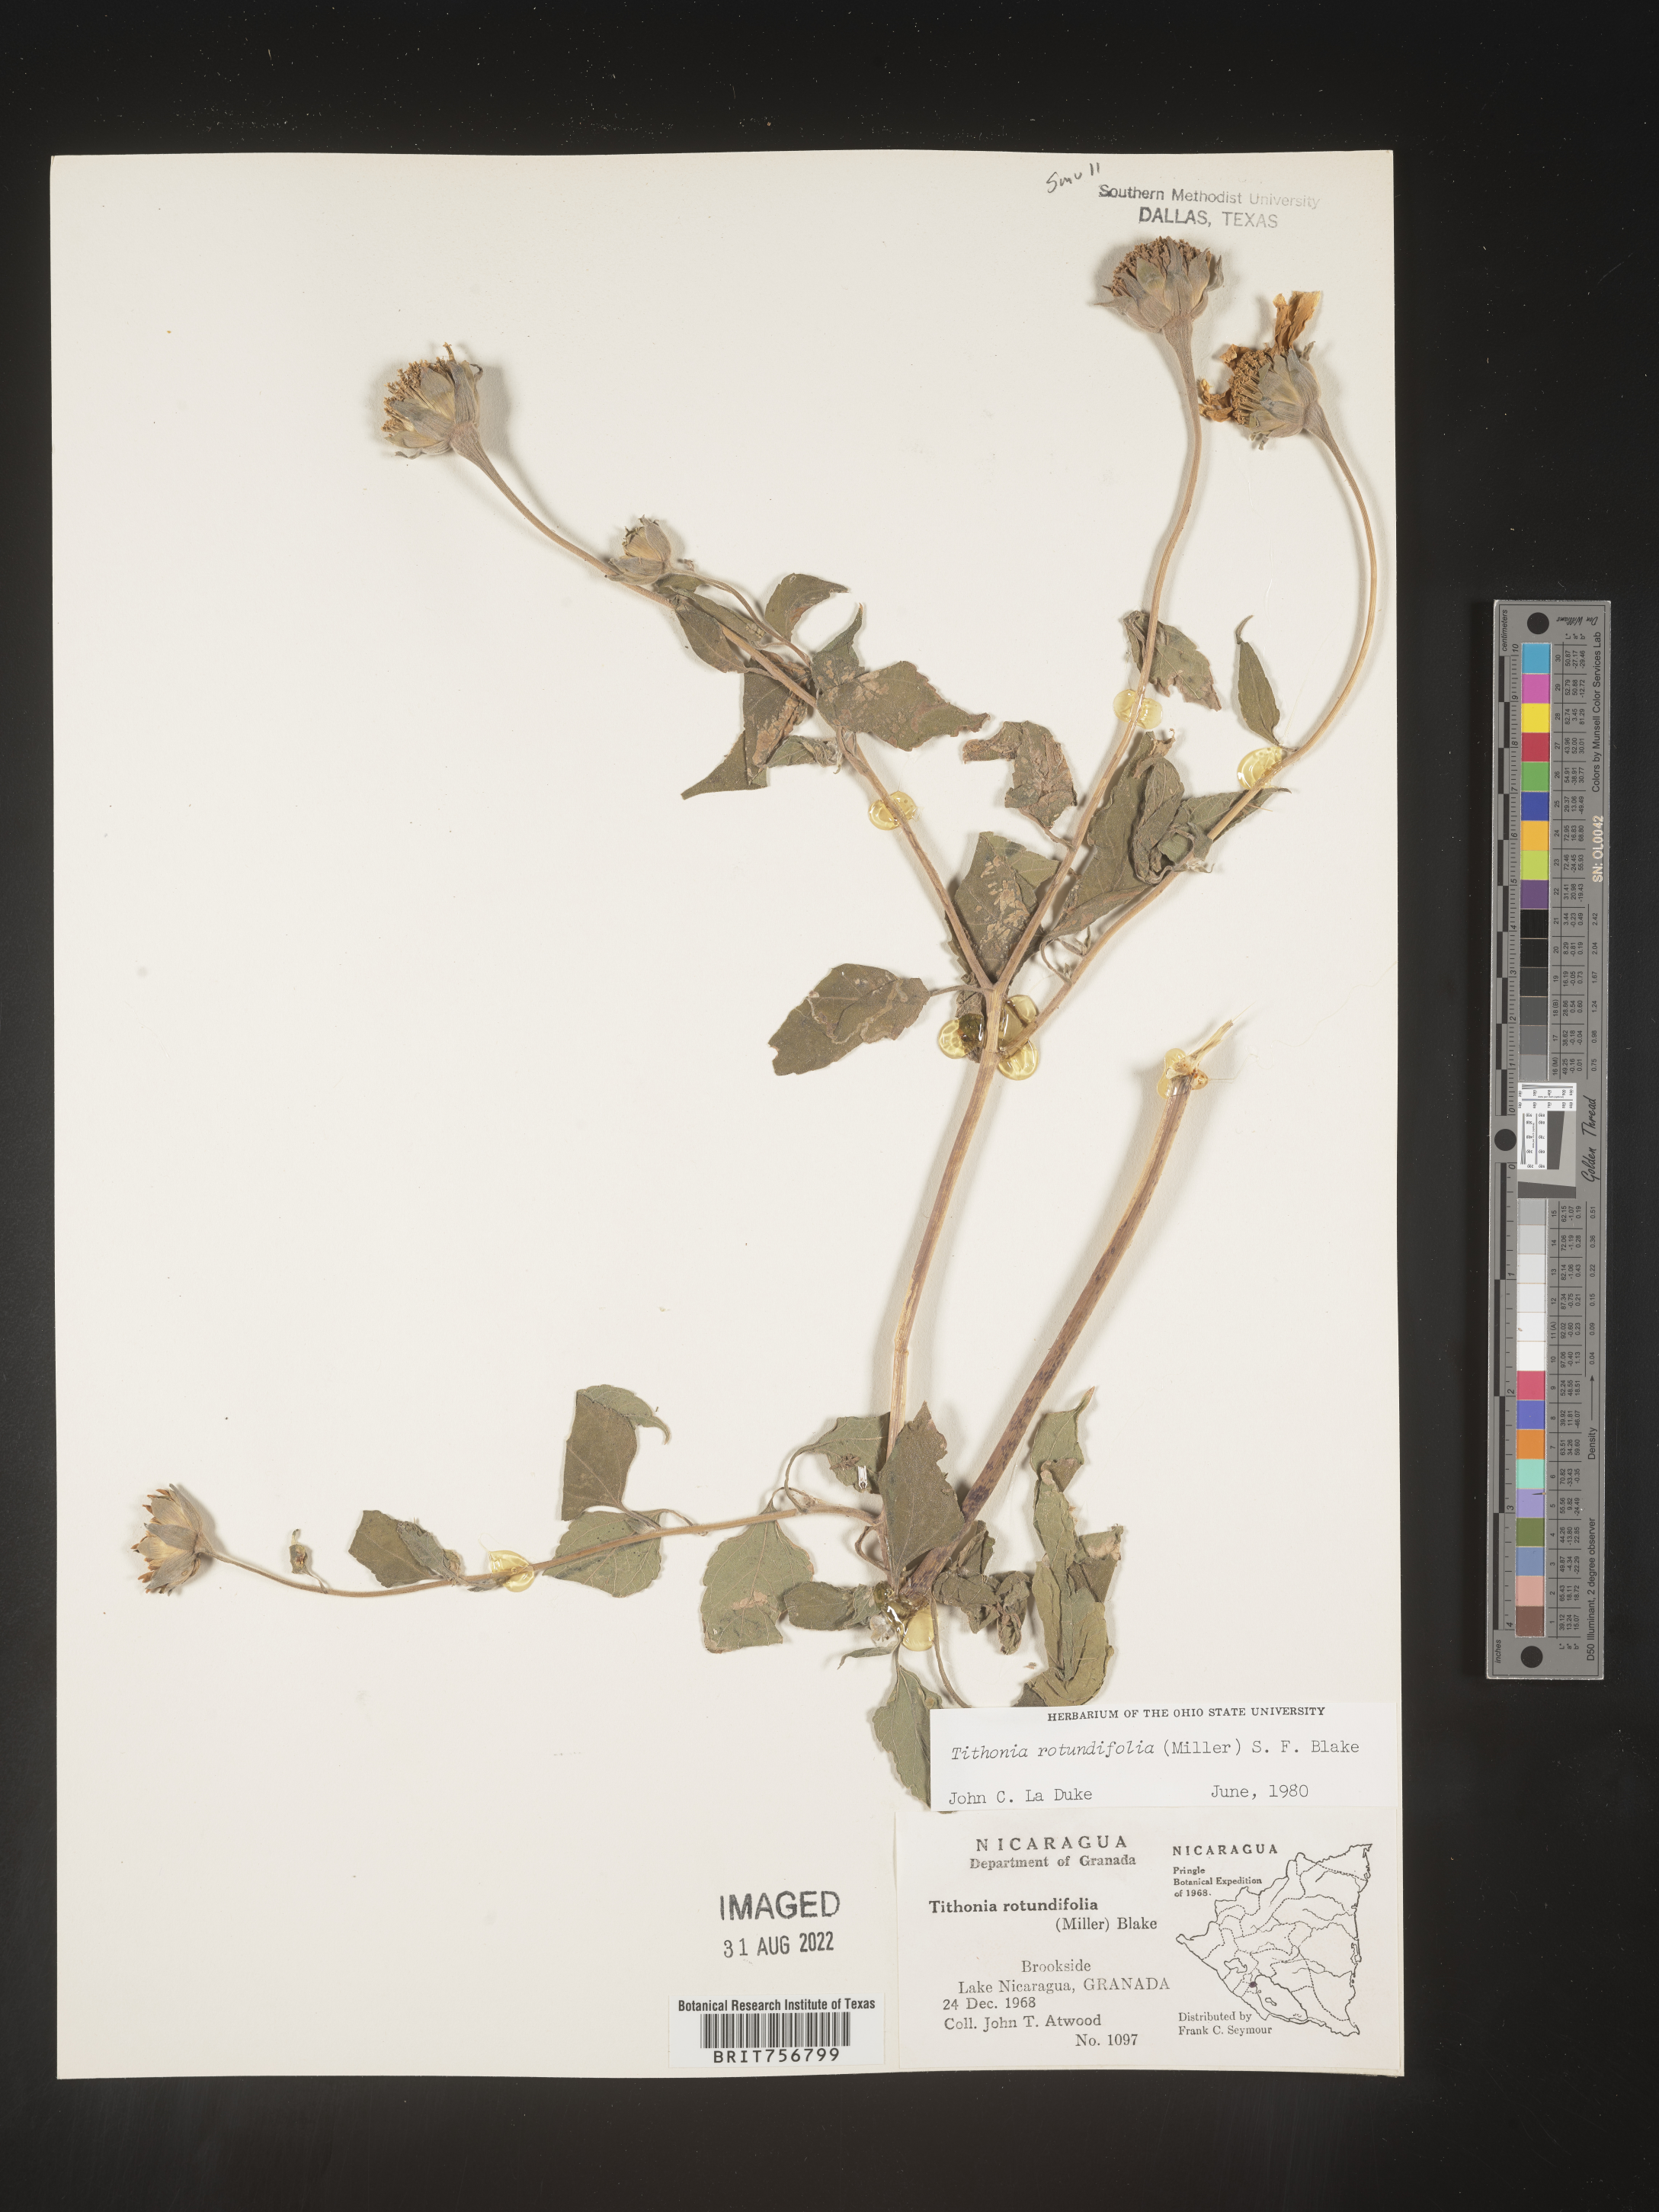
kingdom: Plantae
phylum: Tracheophyta
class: Magnoliopsida
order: Asterales
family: Asteraceae
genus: Tithonia
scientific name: Tithonia
